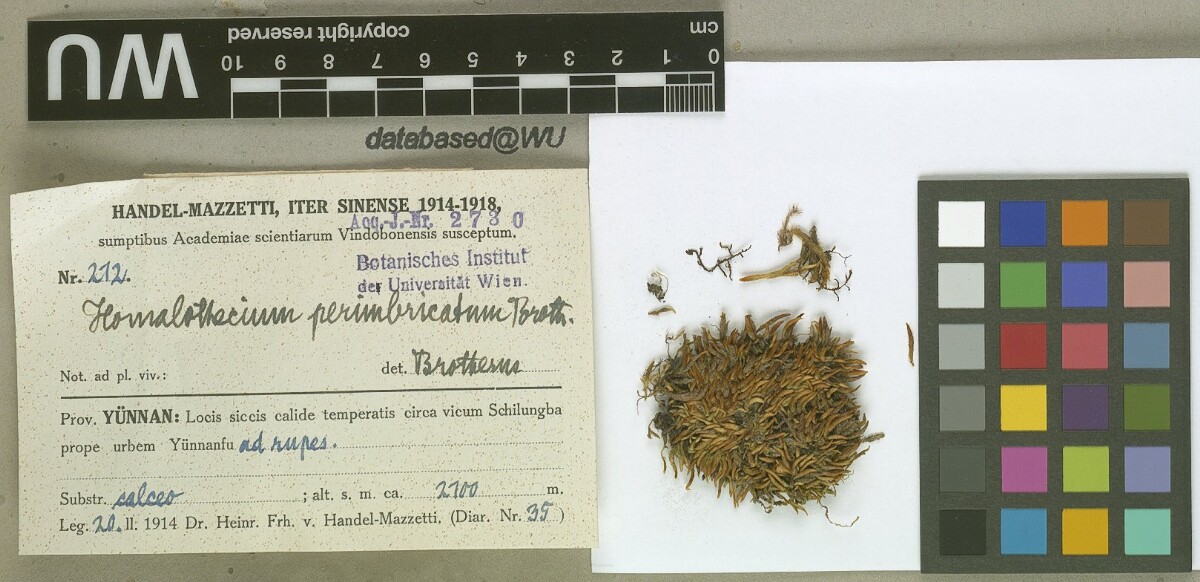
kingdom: Plantae
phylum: Bryophyta
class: Bryopsida
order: Hypnales
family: Brachytheciaceae
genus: Oticodium
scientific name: Oticodium laevisetum
